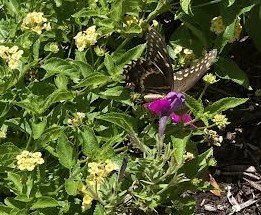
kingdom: Animalia
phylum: Arthropoda
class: Insecta
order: Lepidoptera
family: Papilionidae
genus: Pterourus
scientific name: Pterourus palamedes
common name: Palamedes Swallowtail
